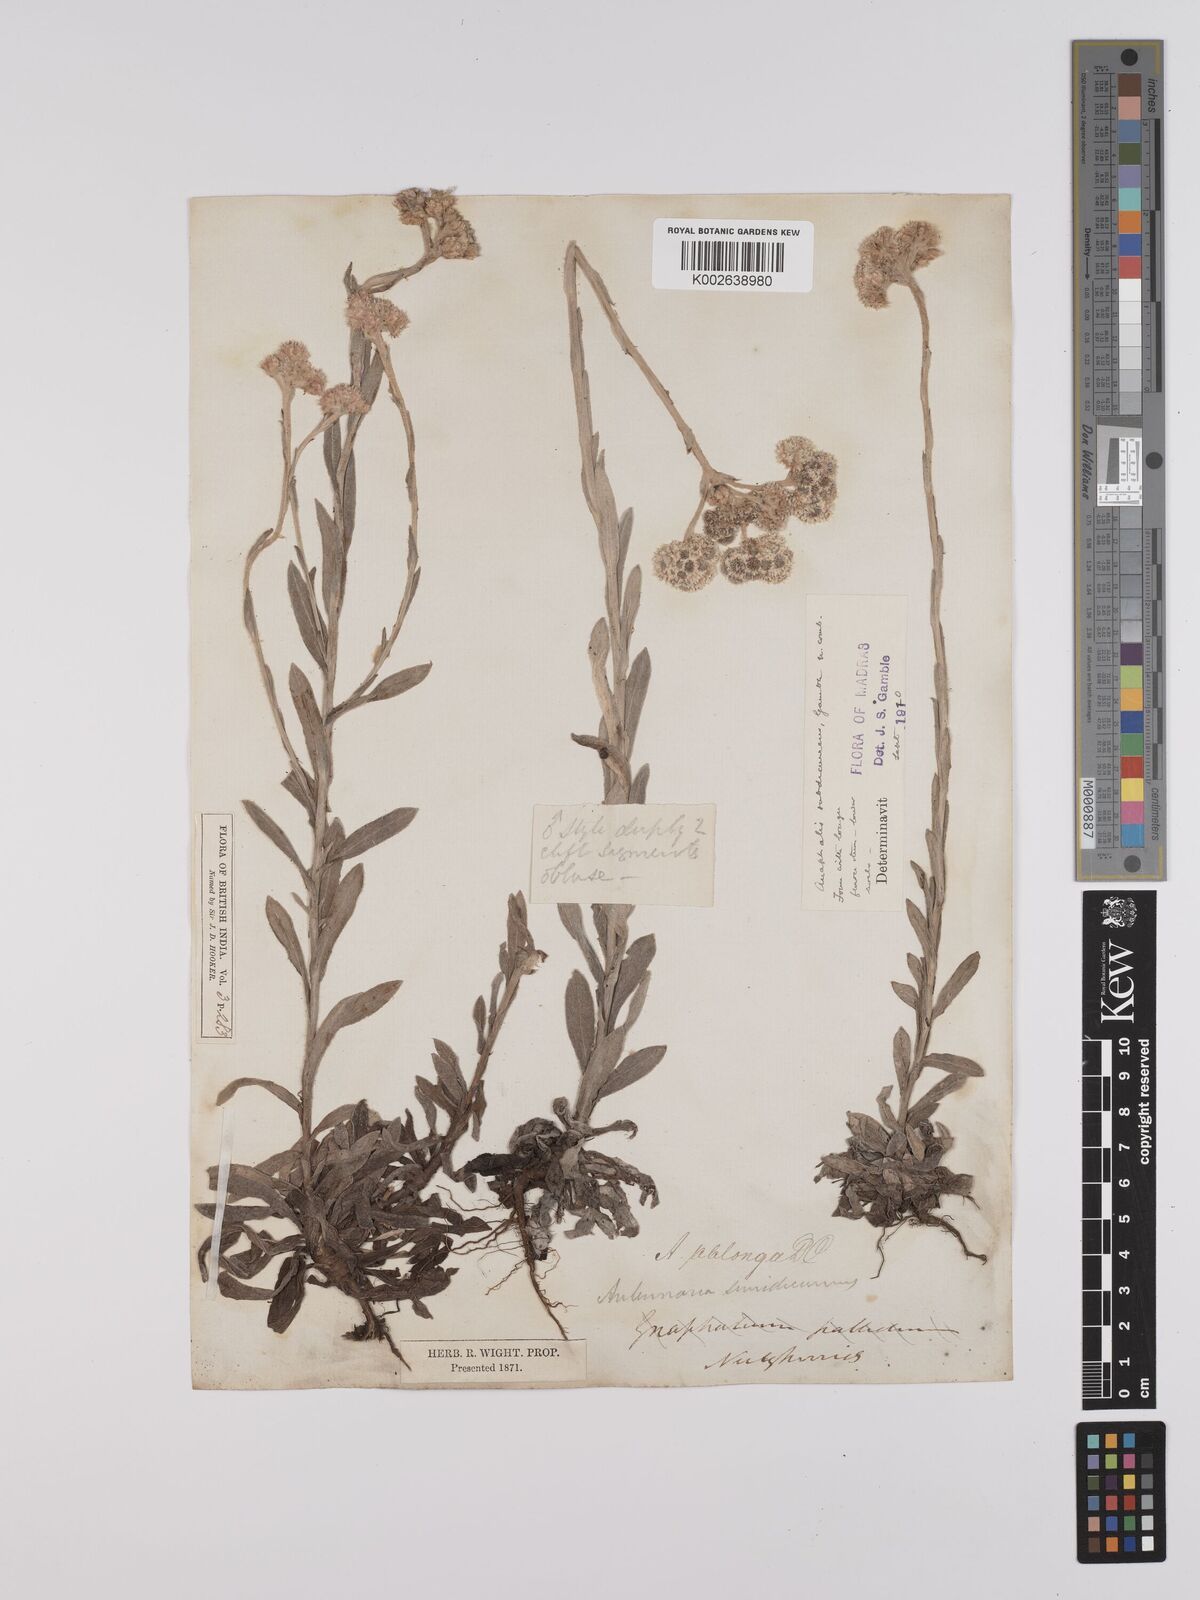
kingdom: Plantae
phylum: Tracheophyta
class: Magnoliopsida
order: Asterales
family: Asteraceae
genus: Anaphalis
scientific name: Anaphalis subdecurrens
